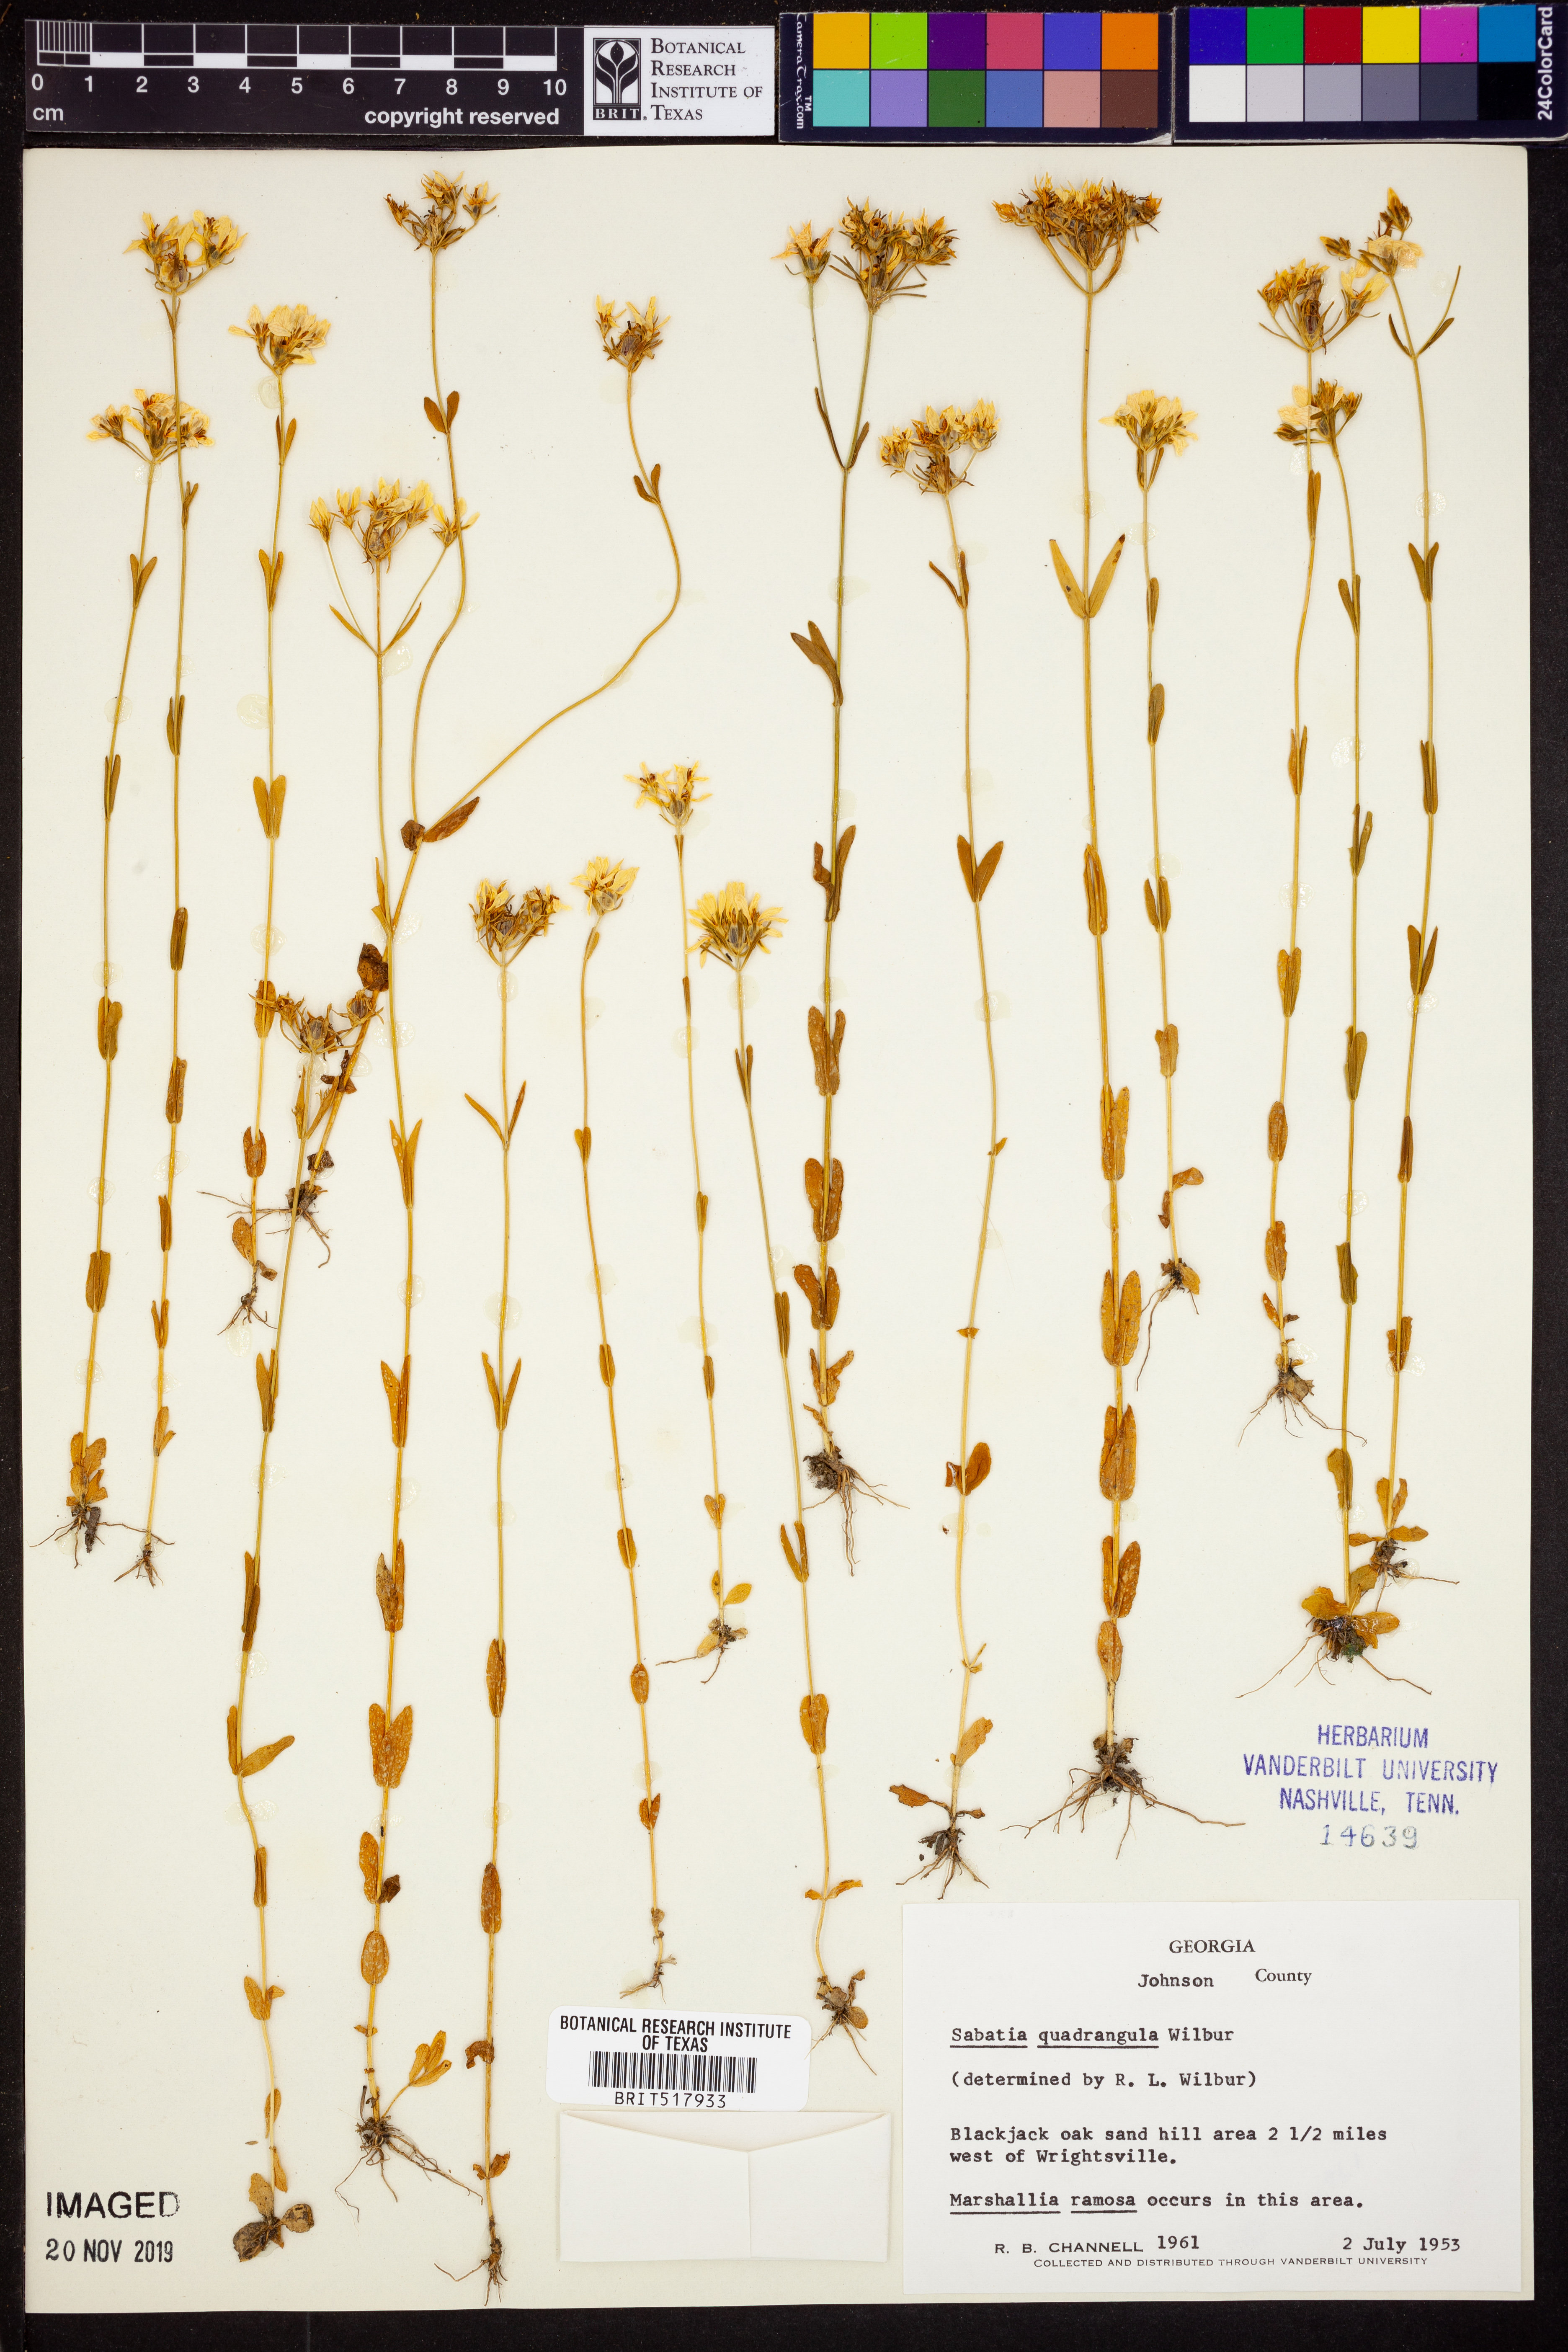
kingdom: Plantae
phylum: Tracheophyta
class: Magnoliopsida
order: Gentianales
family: Gentianaceae
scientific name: Gentianaceae
